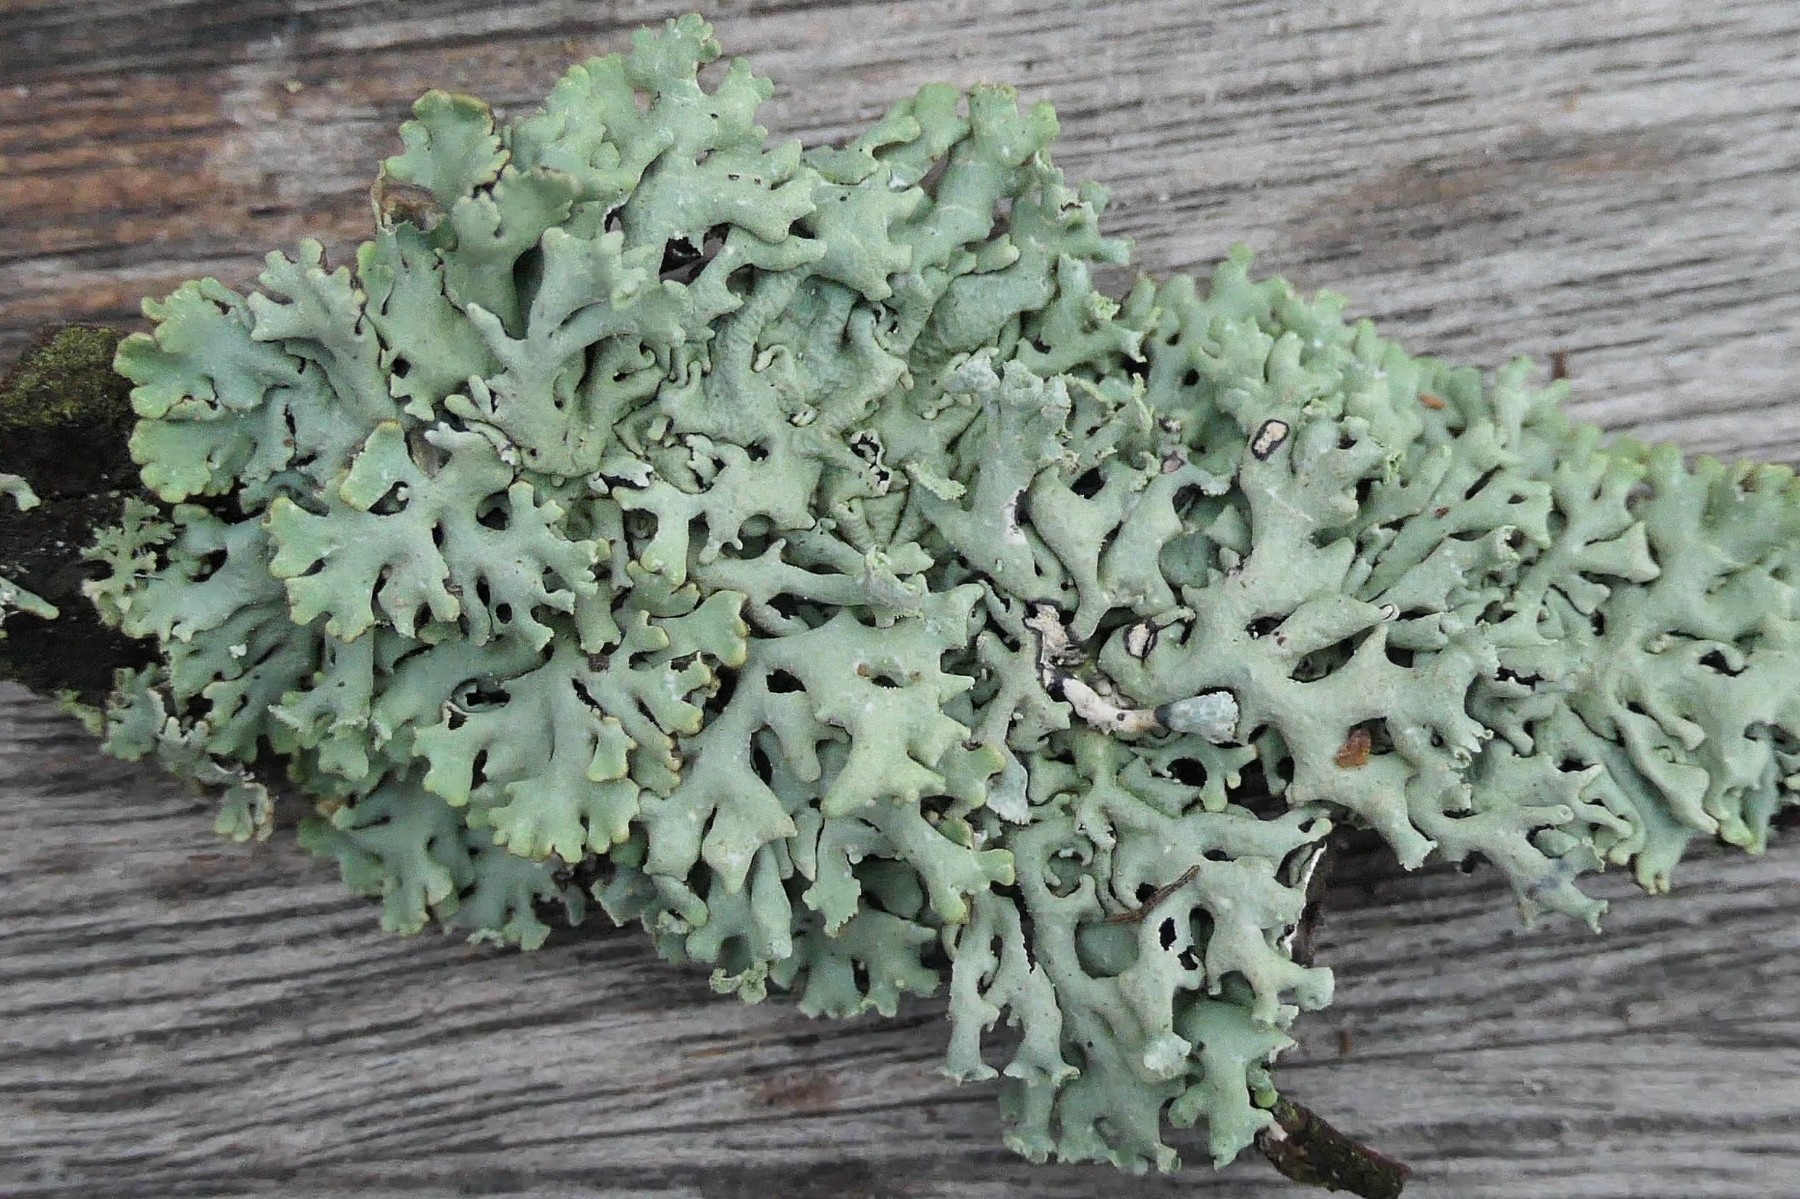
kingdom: Fungi
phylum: Ascomycota
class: Lecanoromycetes
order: Lecanorales
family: Parmeliaceae
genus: Hypogymnia
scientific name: Hypogymnia physodes
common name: almindelig kvistlav
